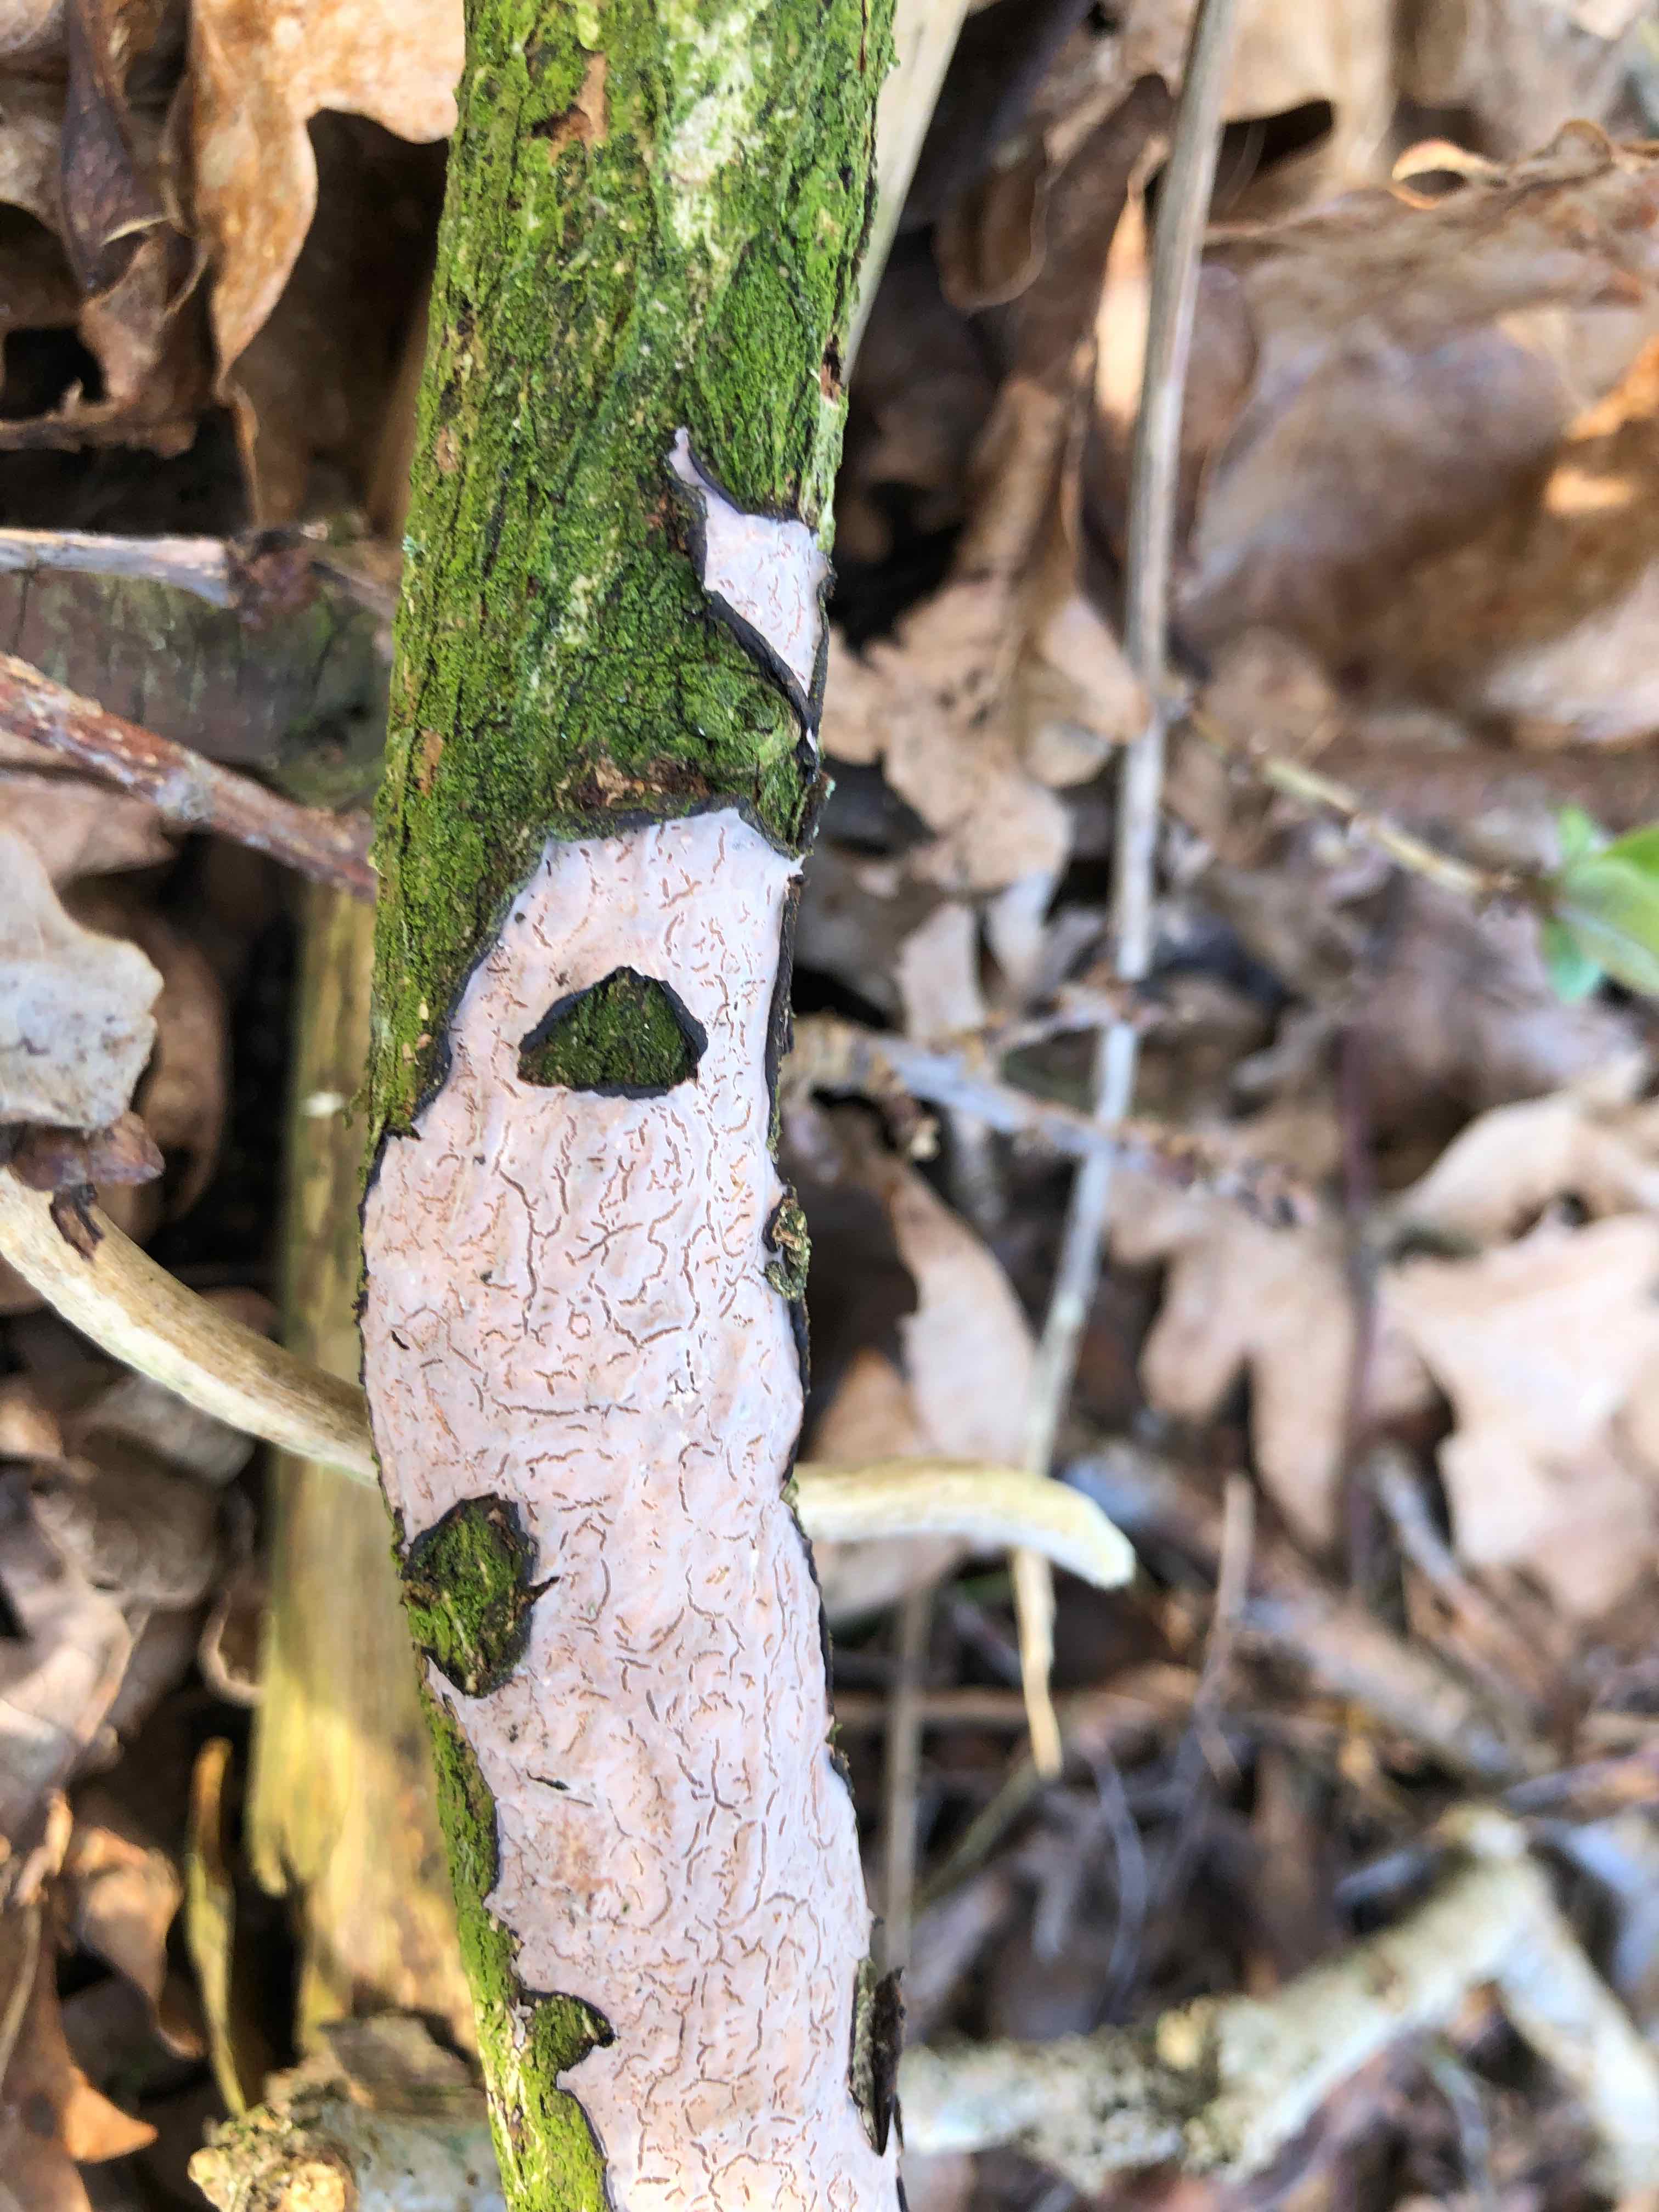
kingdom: Fungi
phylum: Basidiomycota
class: Agaricomycetes
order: Russulales
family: Peniophoraceae
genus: Peniophora
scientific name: Peniophora quercina
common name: ege-voksskind
